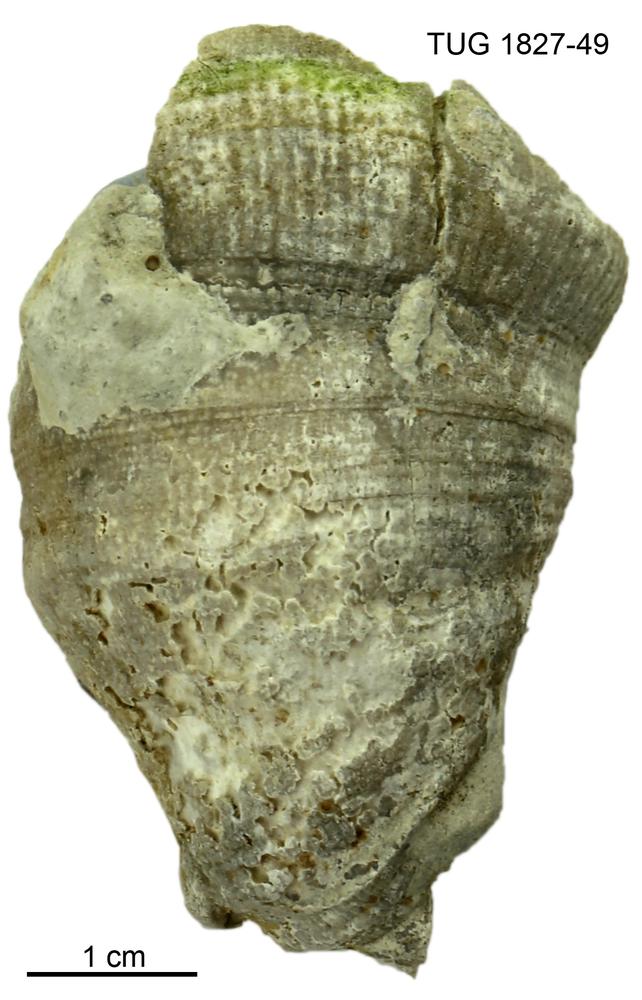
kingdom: Animalia
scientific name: Animalia
